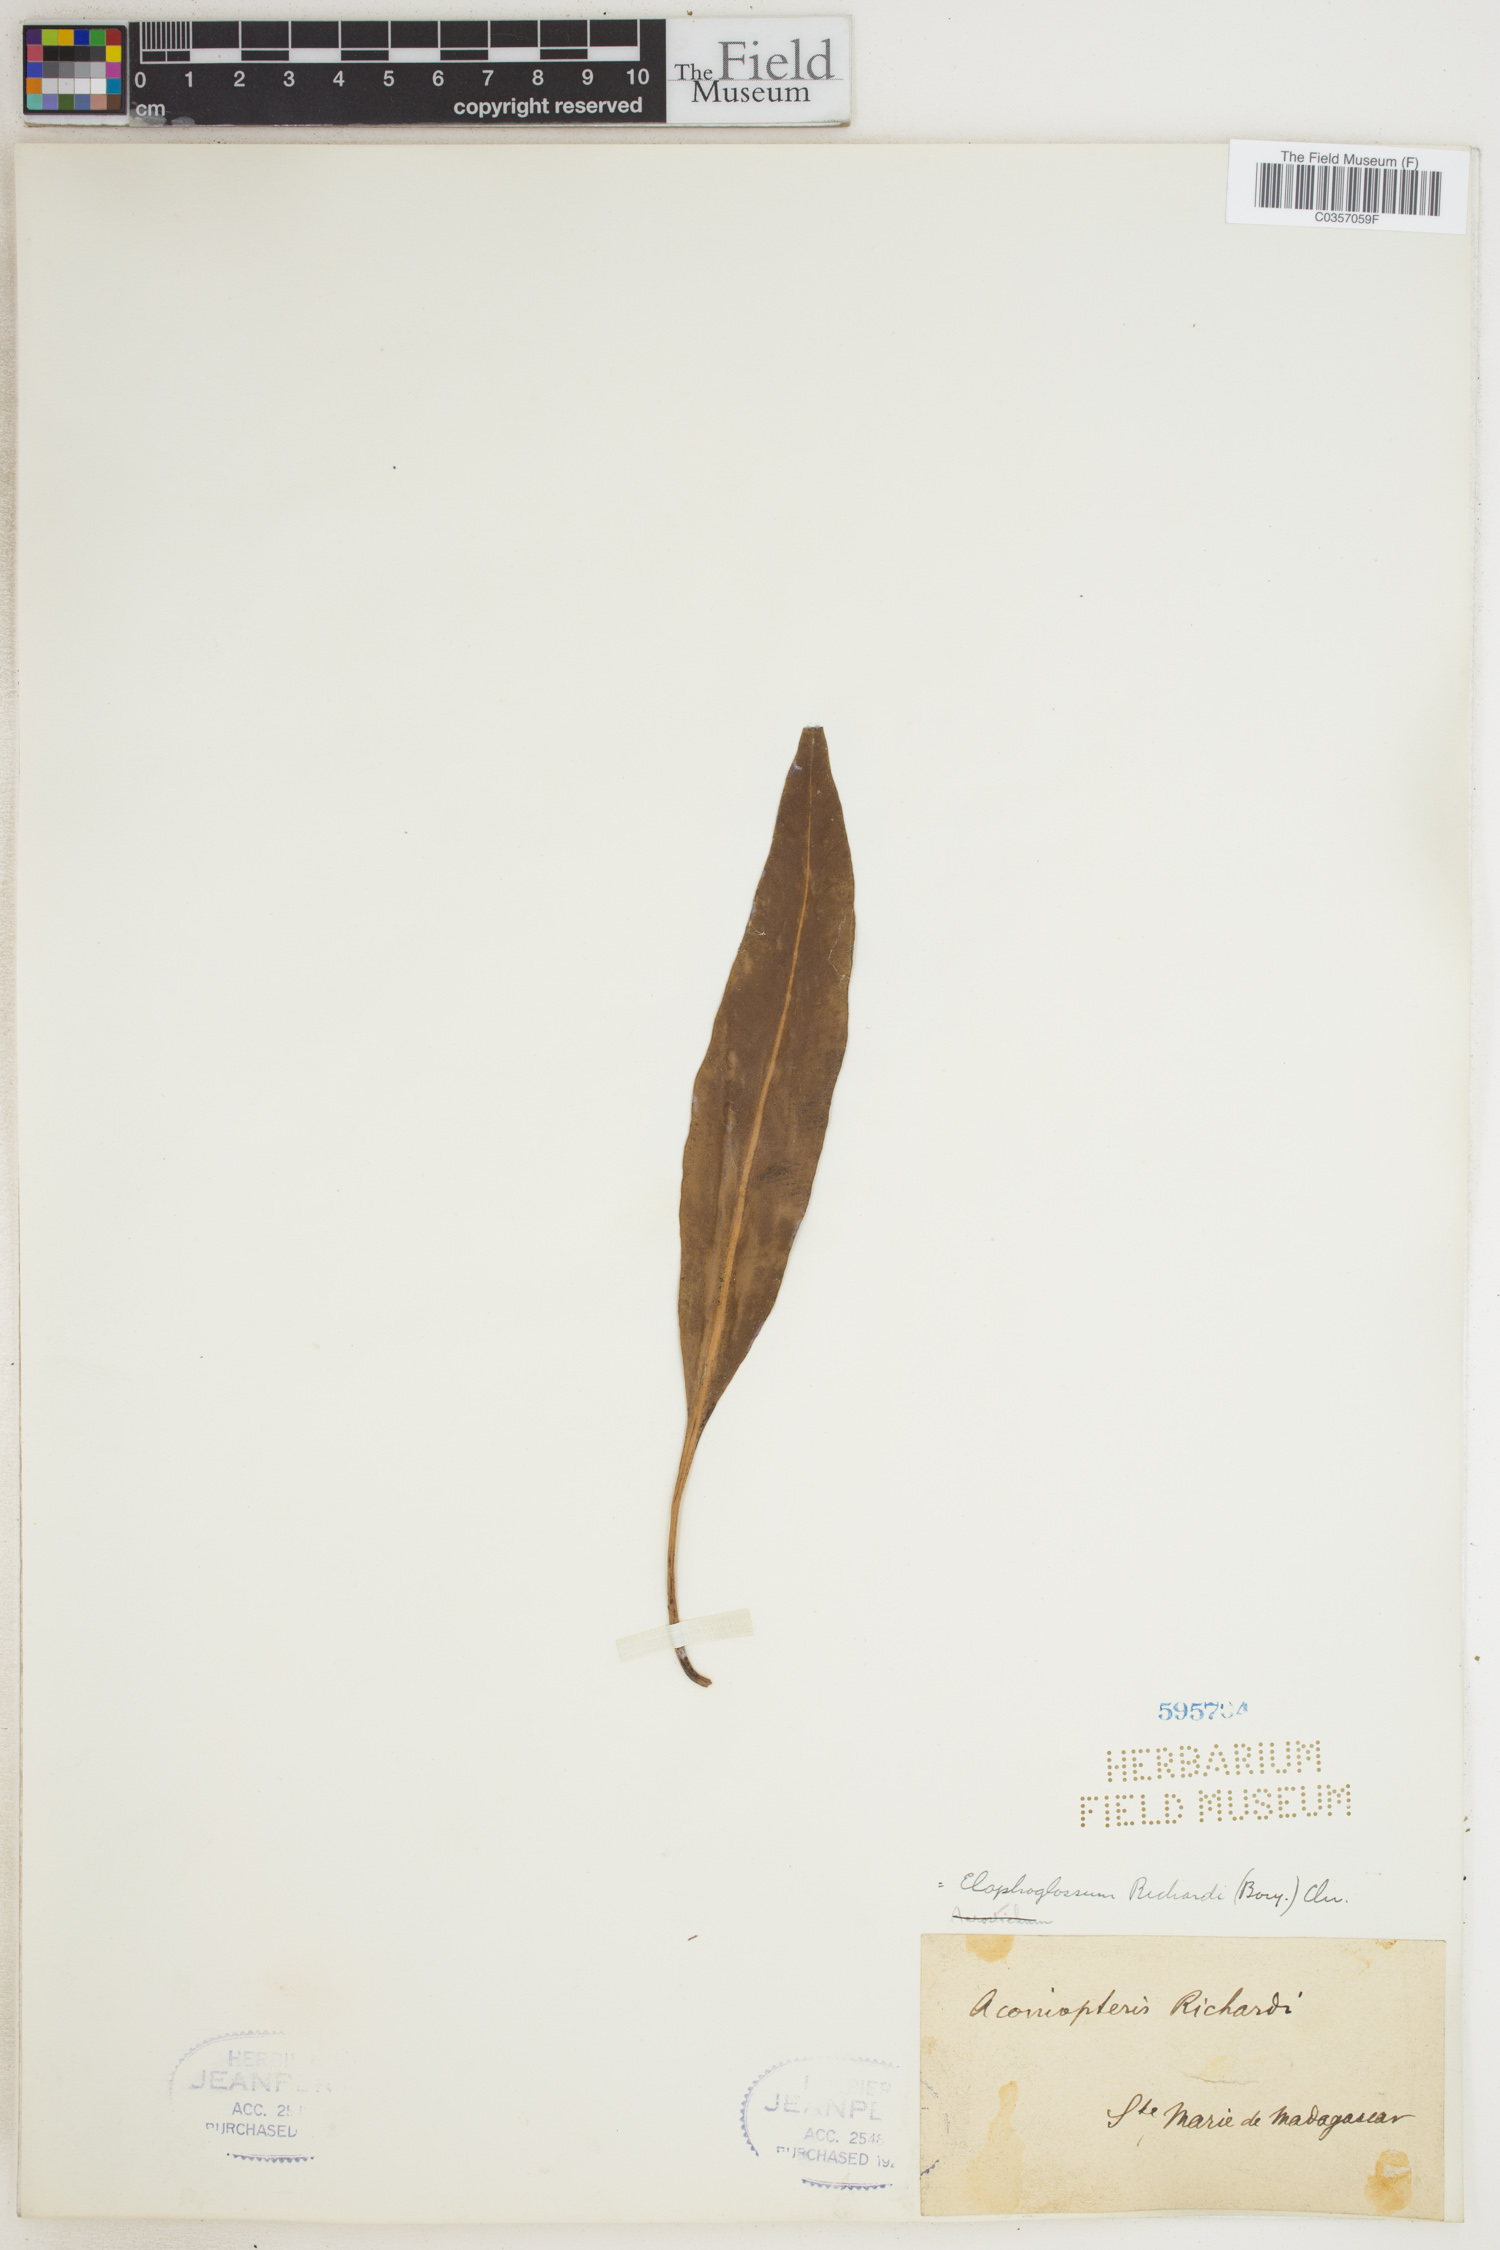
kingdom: Plantae
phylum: Tracheophyta
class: Polypodiopsida
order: Polypodiales
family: Dryopteridaceae
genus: Elaphoglossum
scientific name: Elaphoglossum richardii
